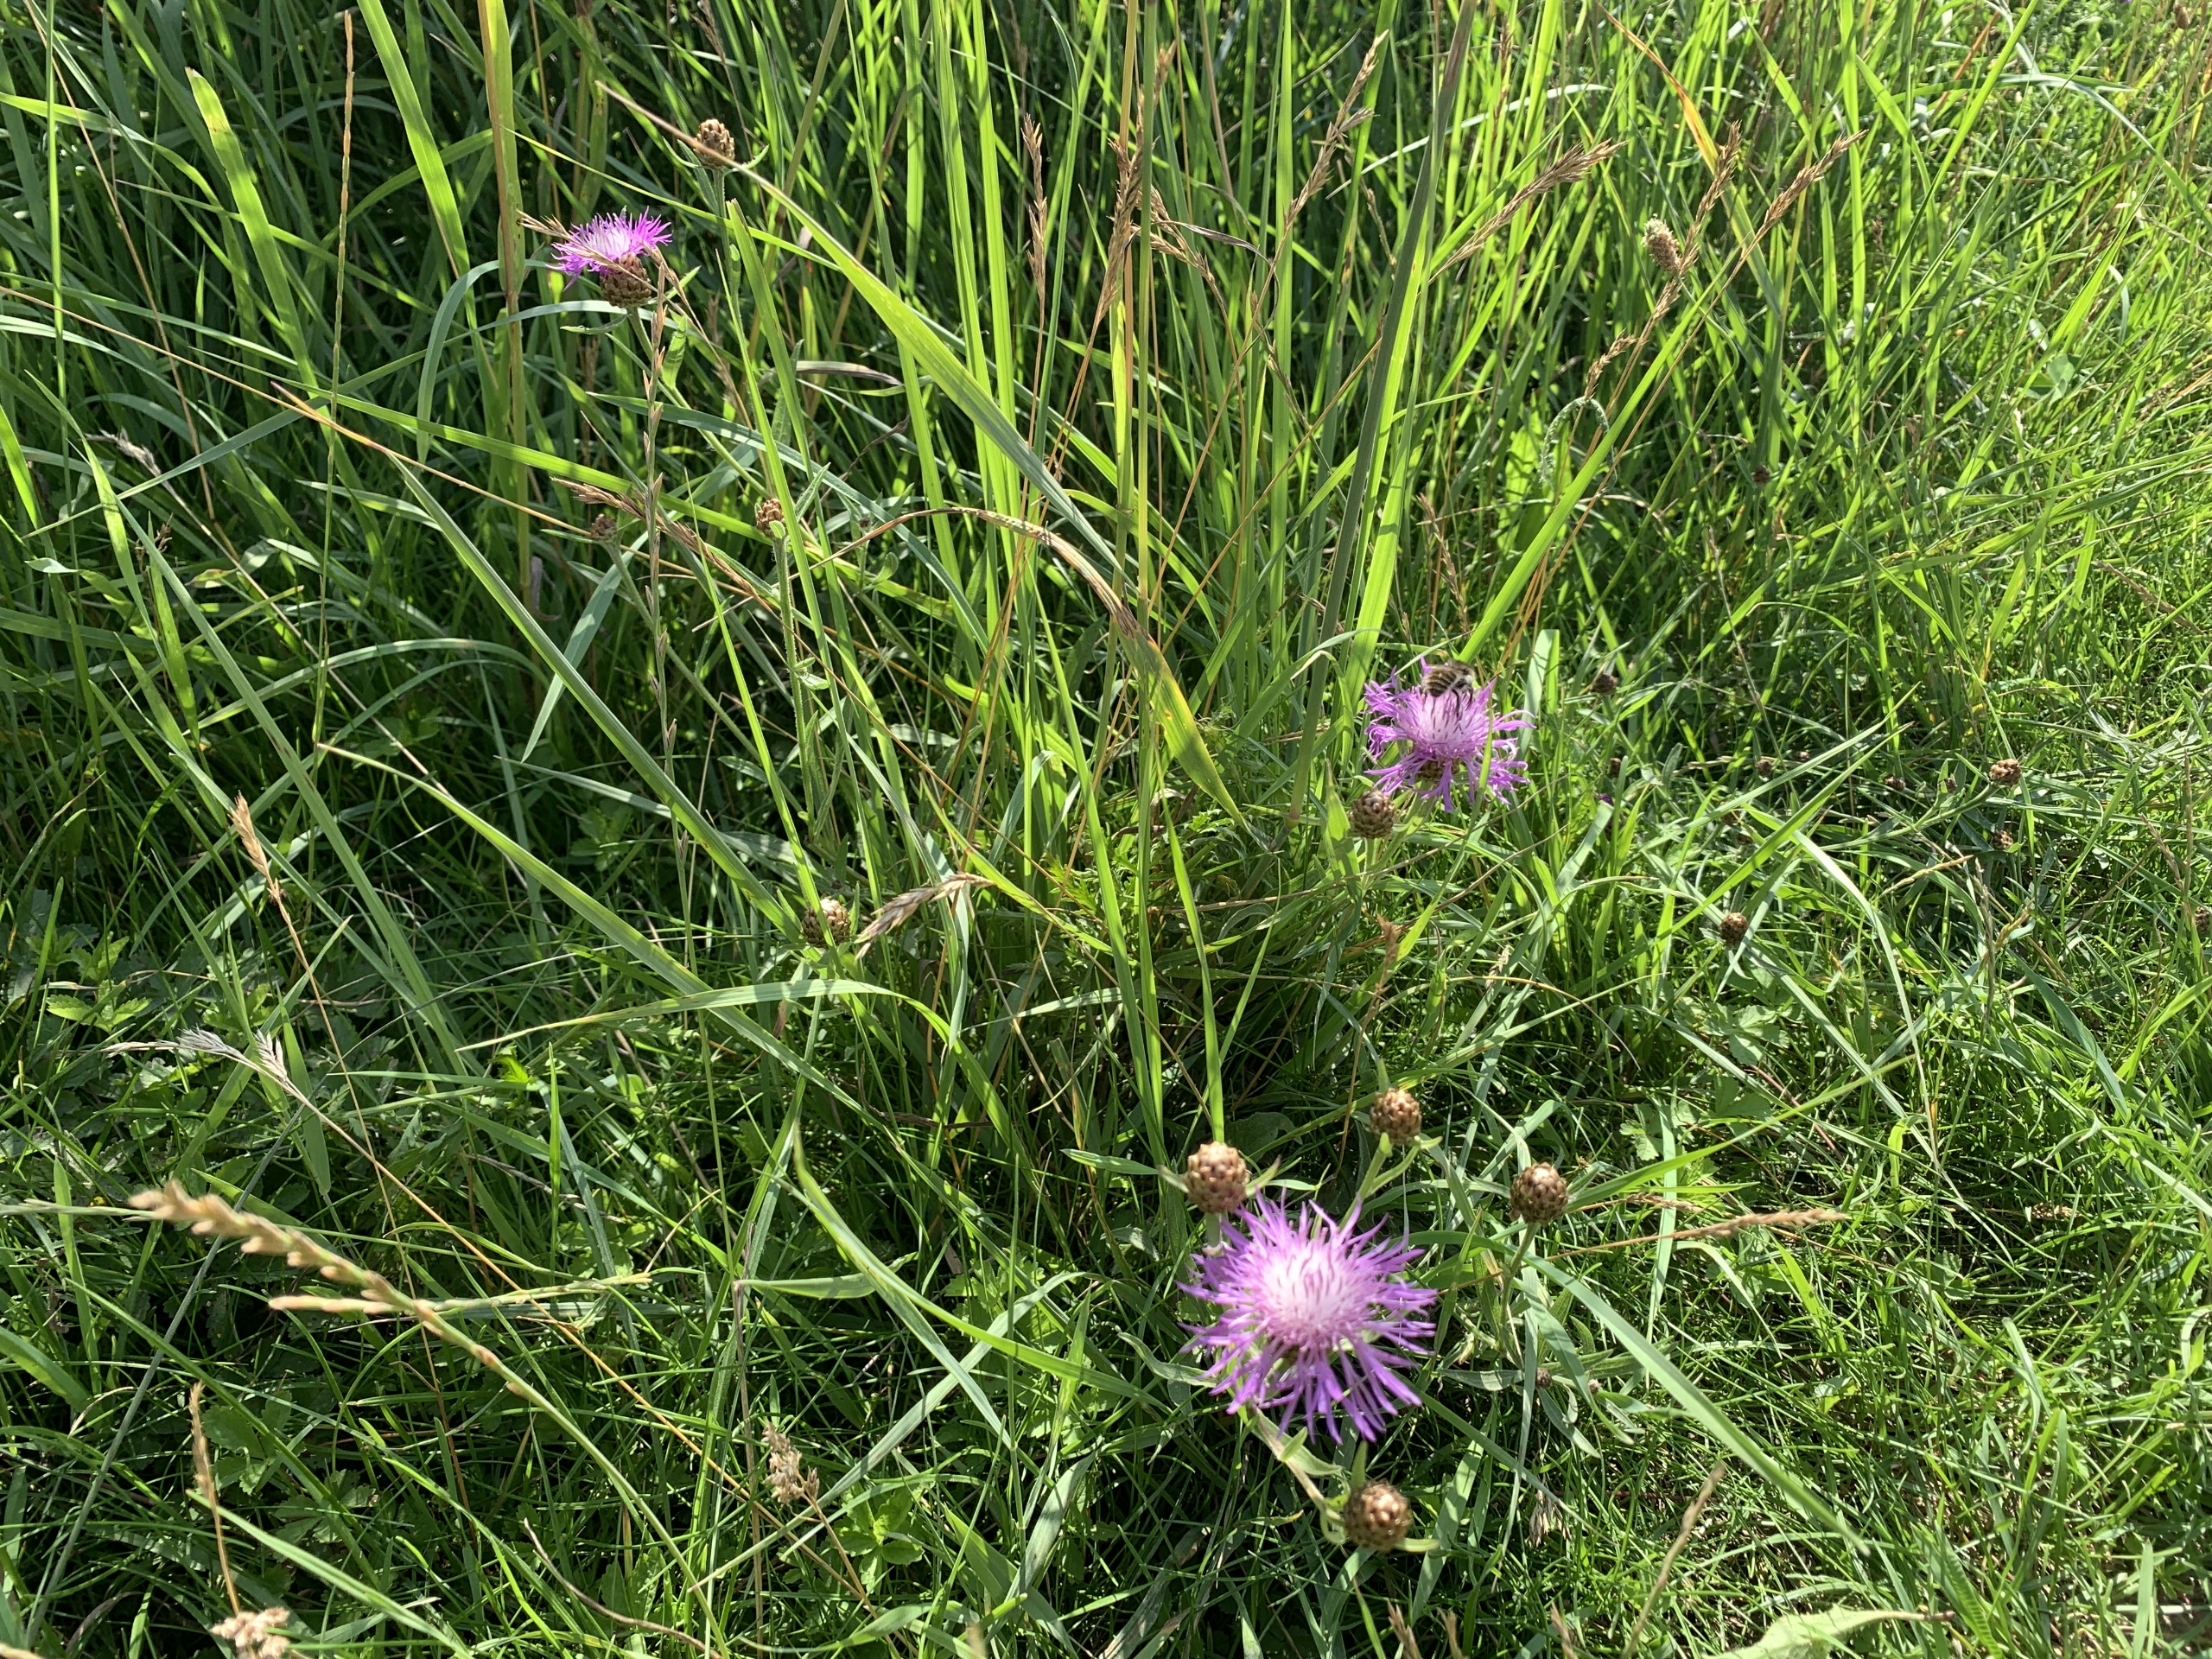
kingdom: Plantae
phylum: Tracheophyta
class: Magnoliopsida
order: Asterales
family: Asteraceae
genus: Centaurea
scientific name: Centaurea jacea
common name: Almindelig knopurt
